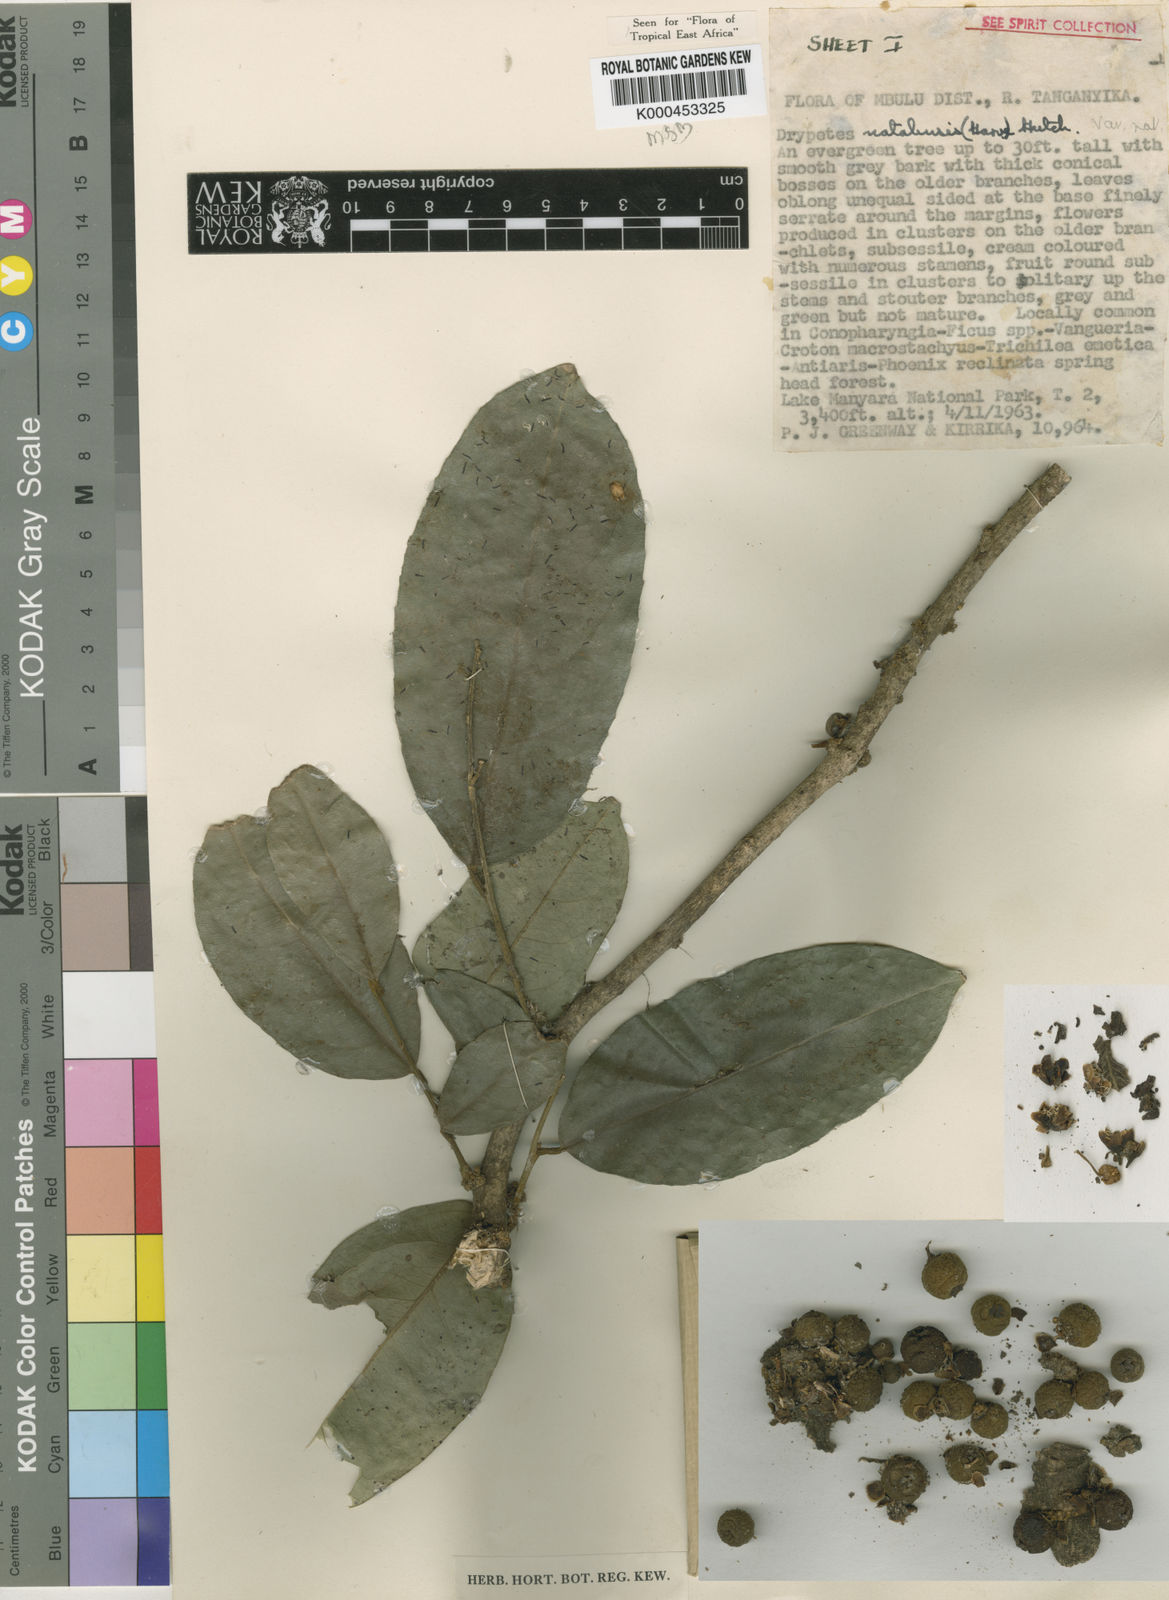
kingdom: Plantae
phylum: Tracheophyta
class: Magnoliopsida
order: Malpighiales
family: Putranjivaceae
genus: Drypetes
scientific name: Drypetes natalensis
